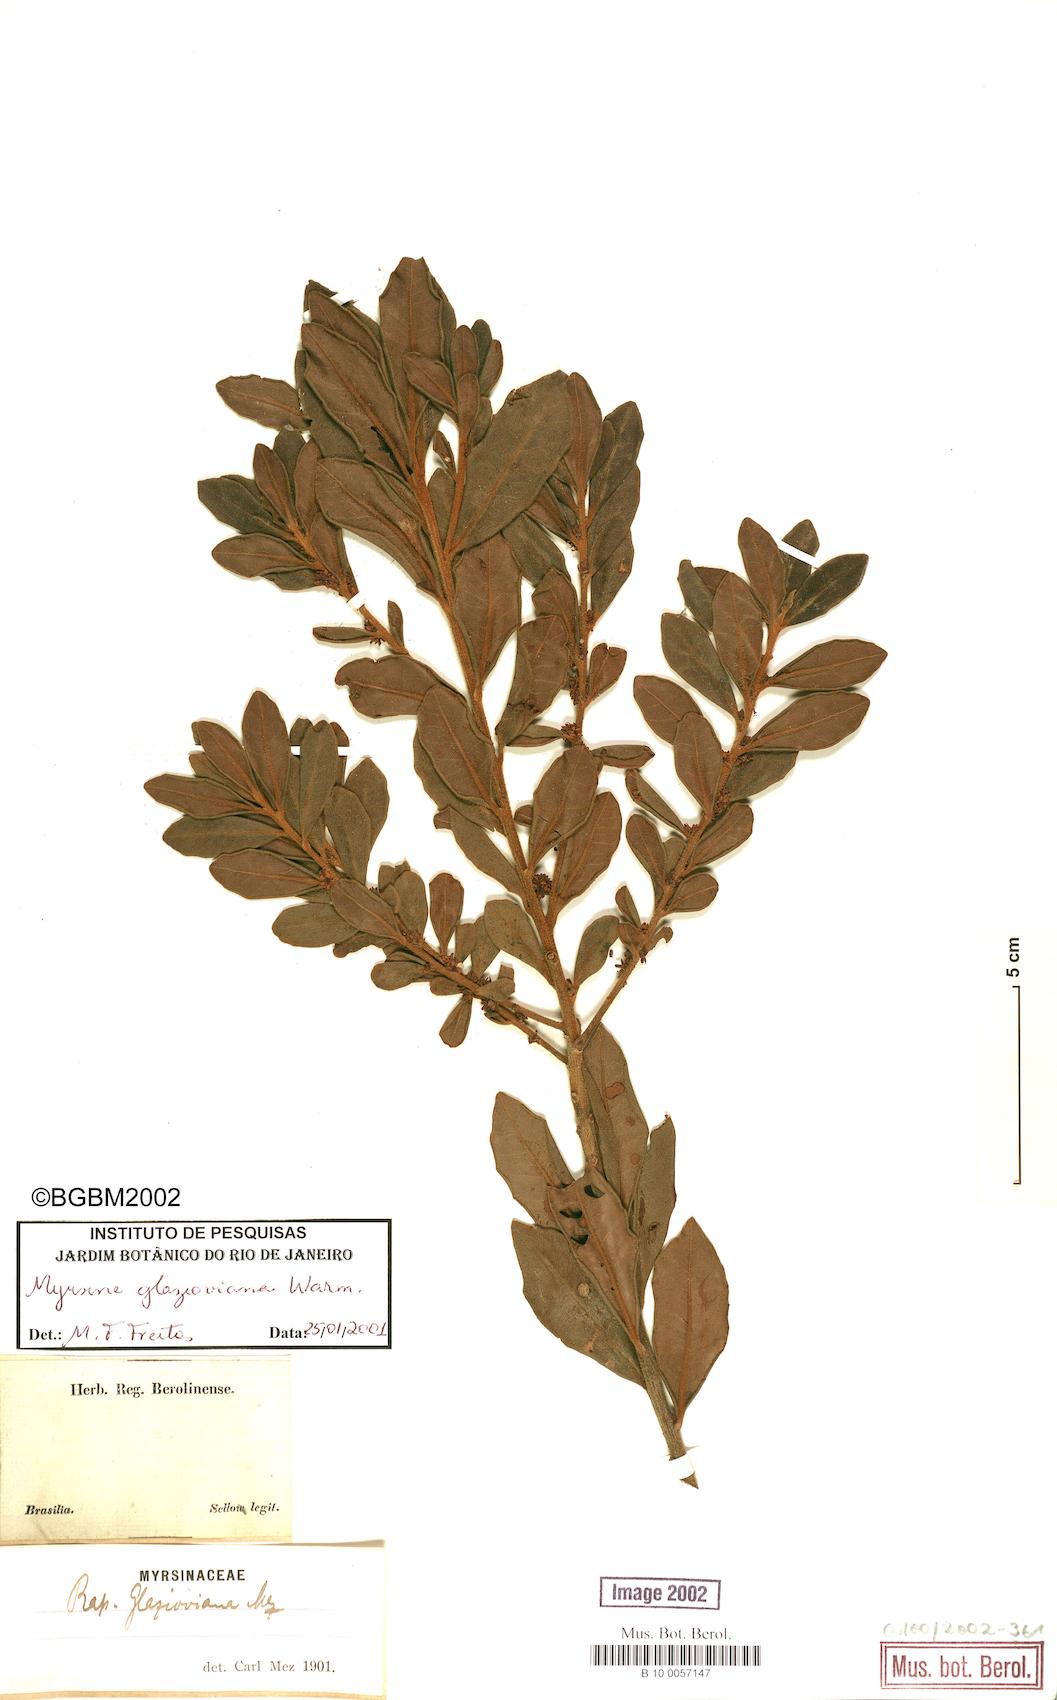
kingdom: Plantae
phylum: Tracheophyta
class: Magnoliopsida
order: Ericales
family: Primulaceae
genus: Myrsine
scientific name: Myrsine glazioviana
